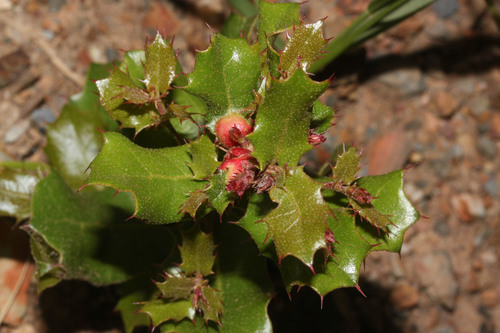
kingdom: Plantae
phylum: Tracheophyta
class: Magnoliopsida
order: Fagales
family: Fagaceae
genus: Quercus
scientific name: Quercus coccifera
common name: Kermes oak
